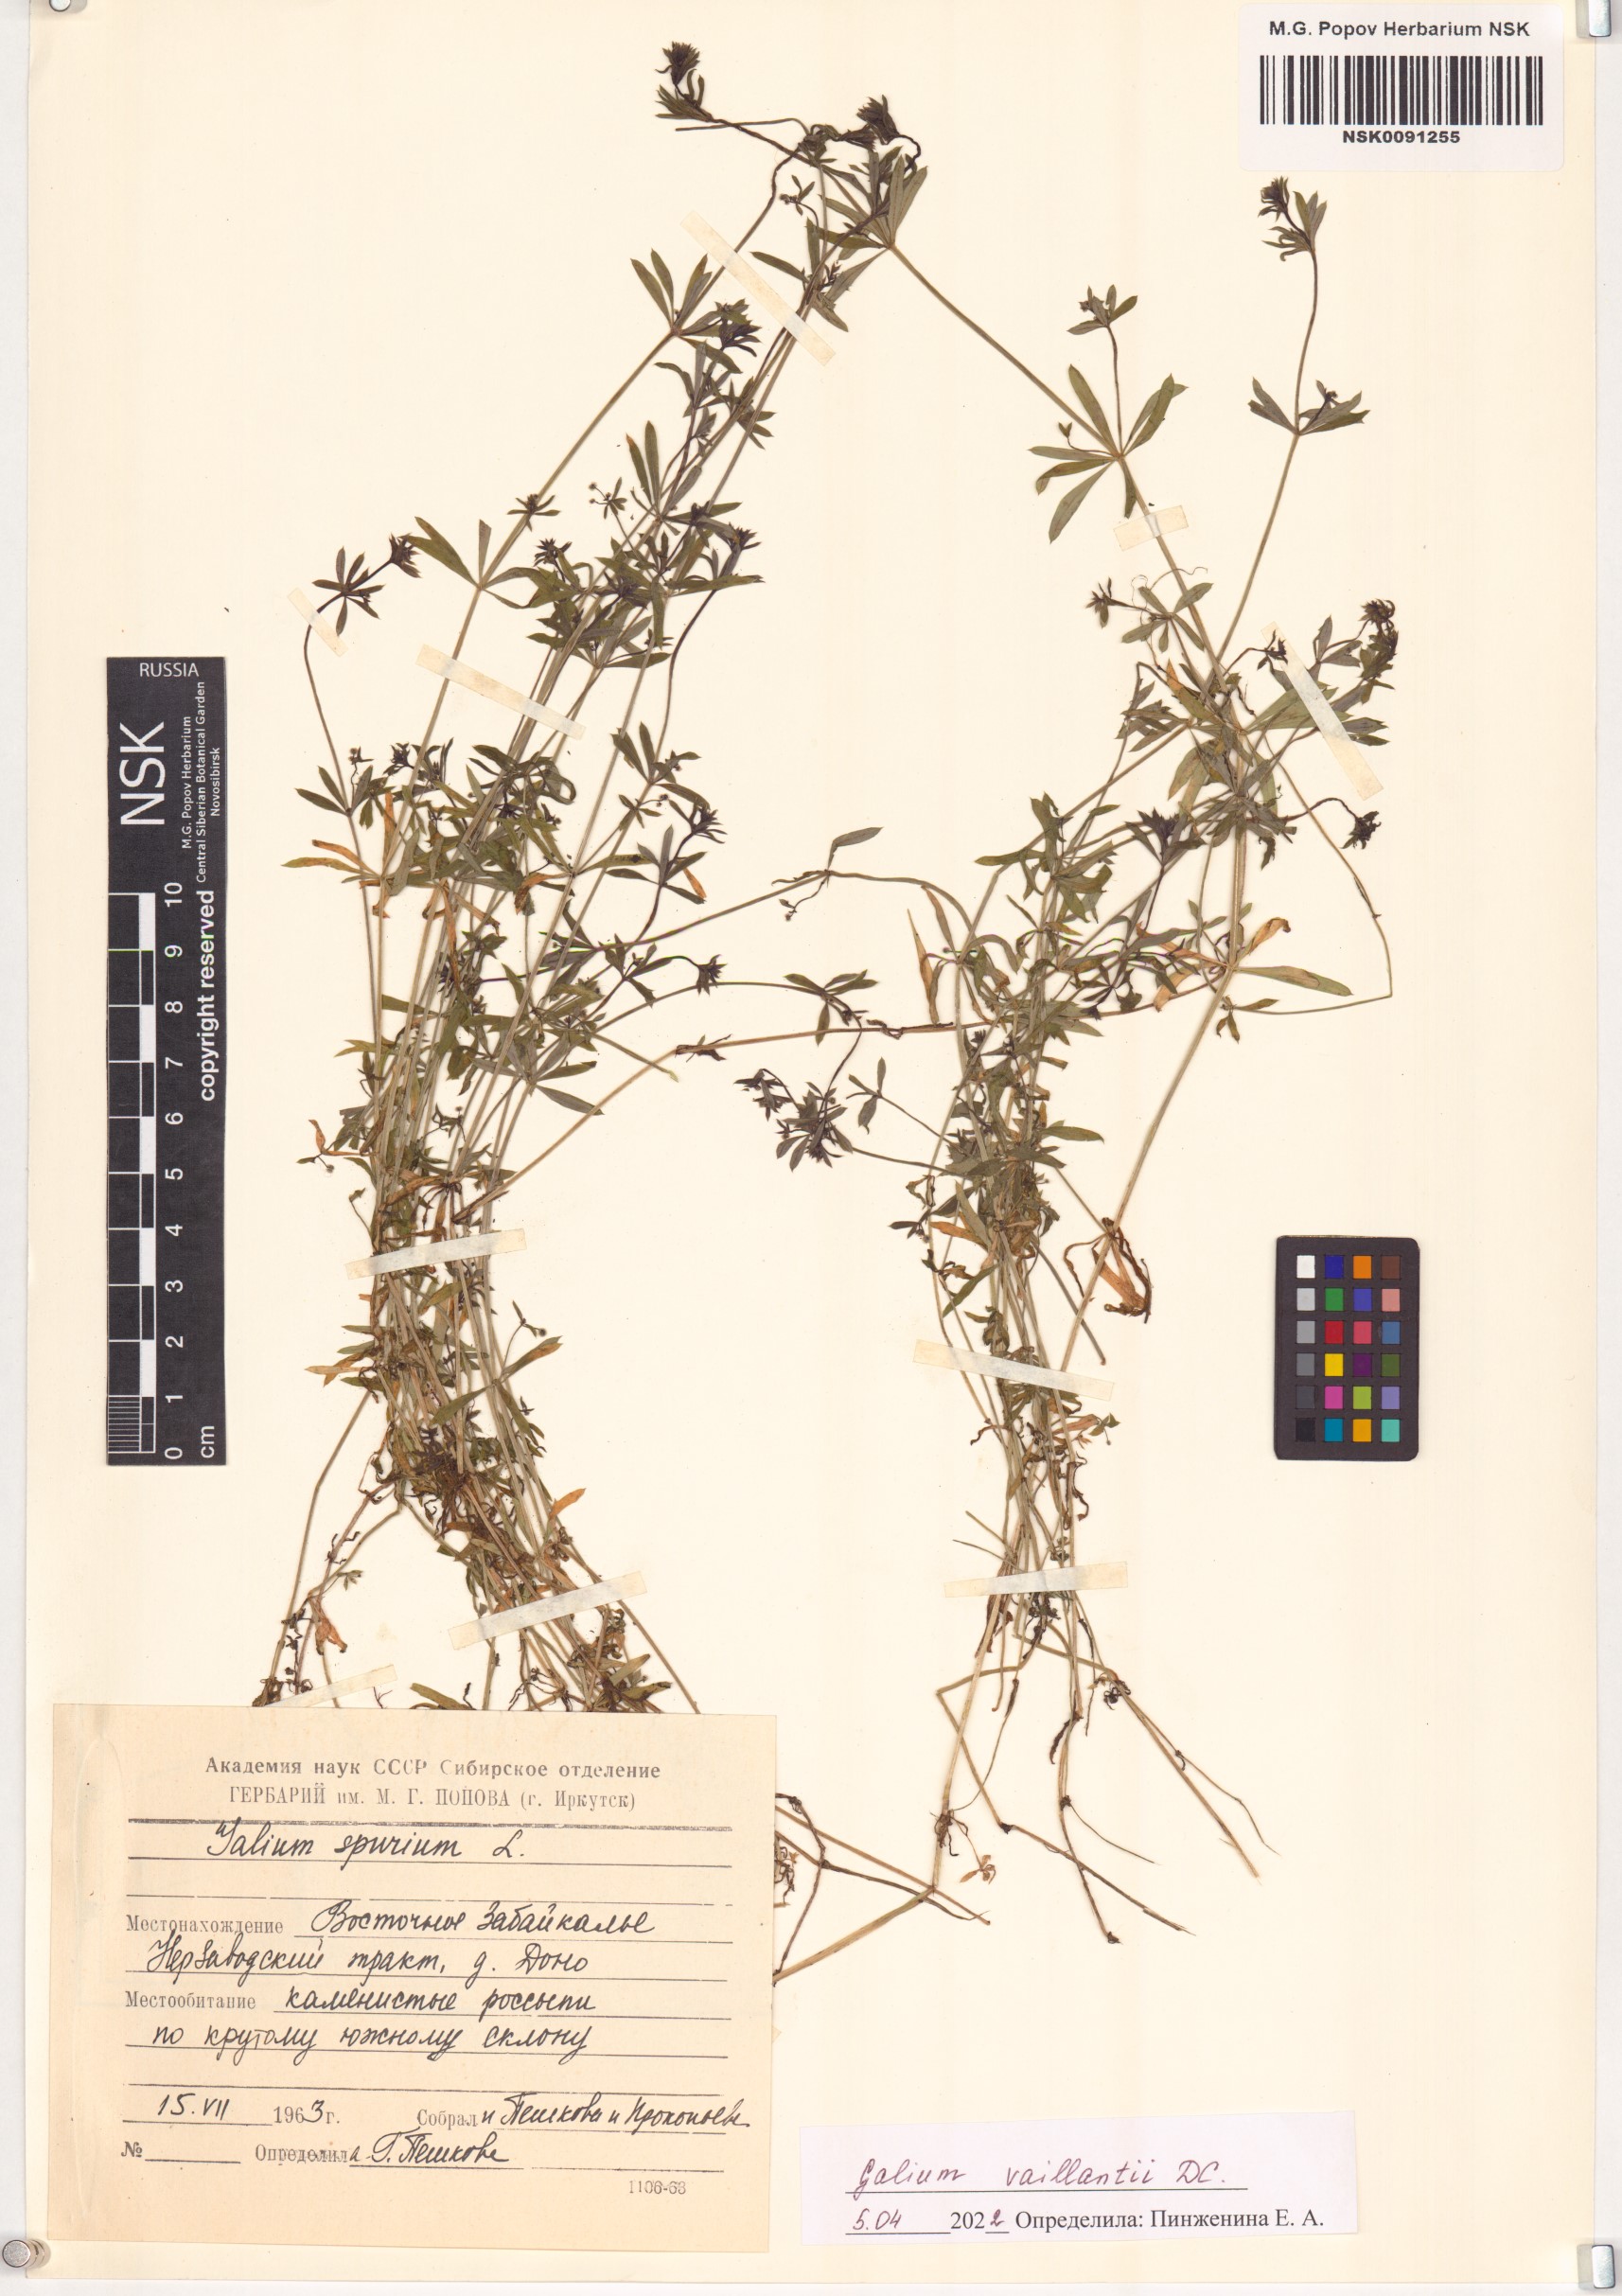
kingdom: Plantae
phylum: Tracheophyta
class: Magnoliopsida
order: Gentianales
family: Rubiaceae
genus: Galium
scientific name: Galium spurium
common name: False cleavers
